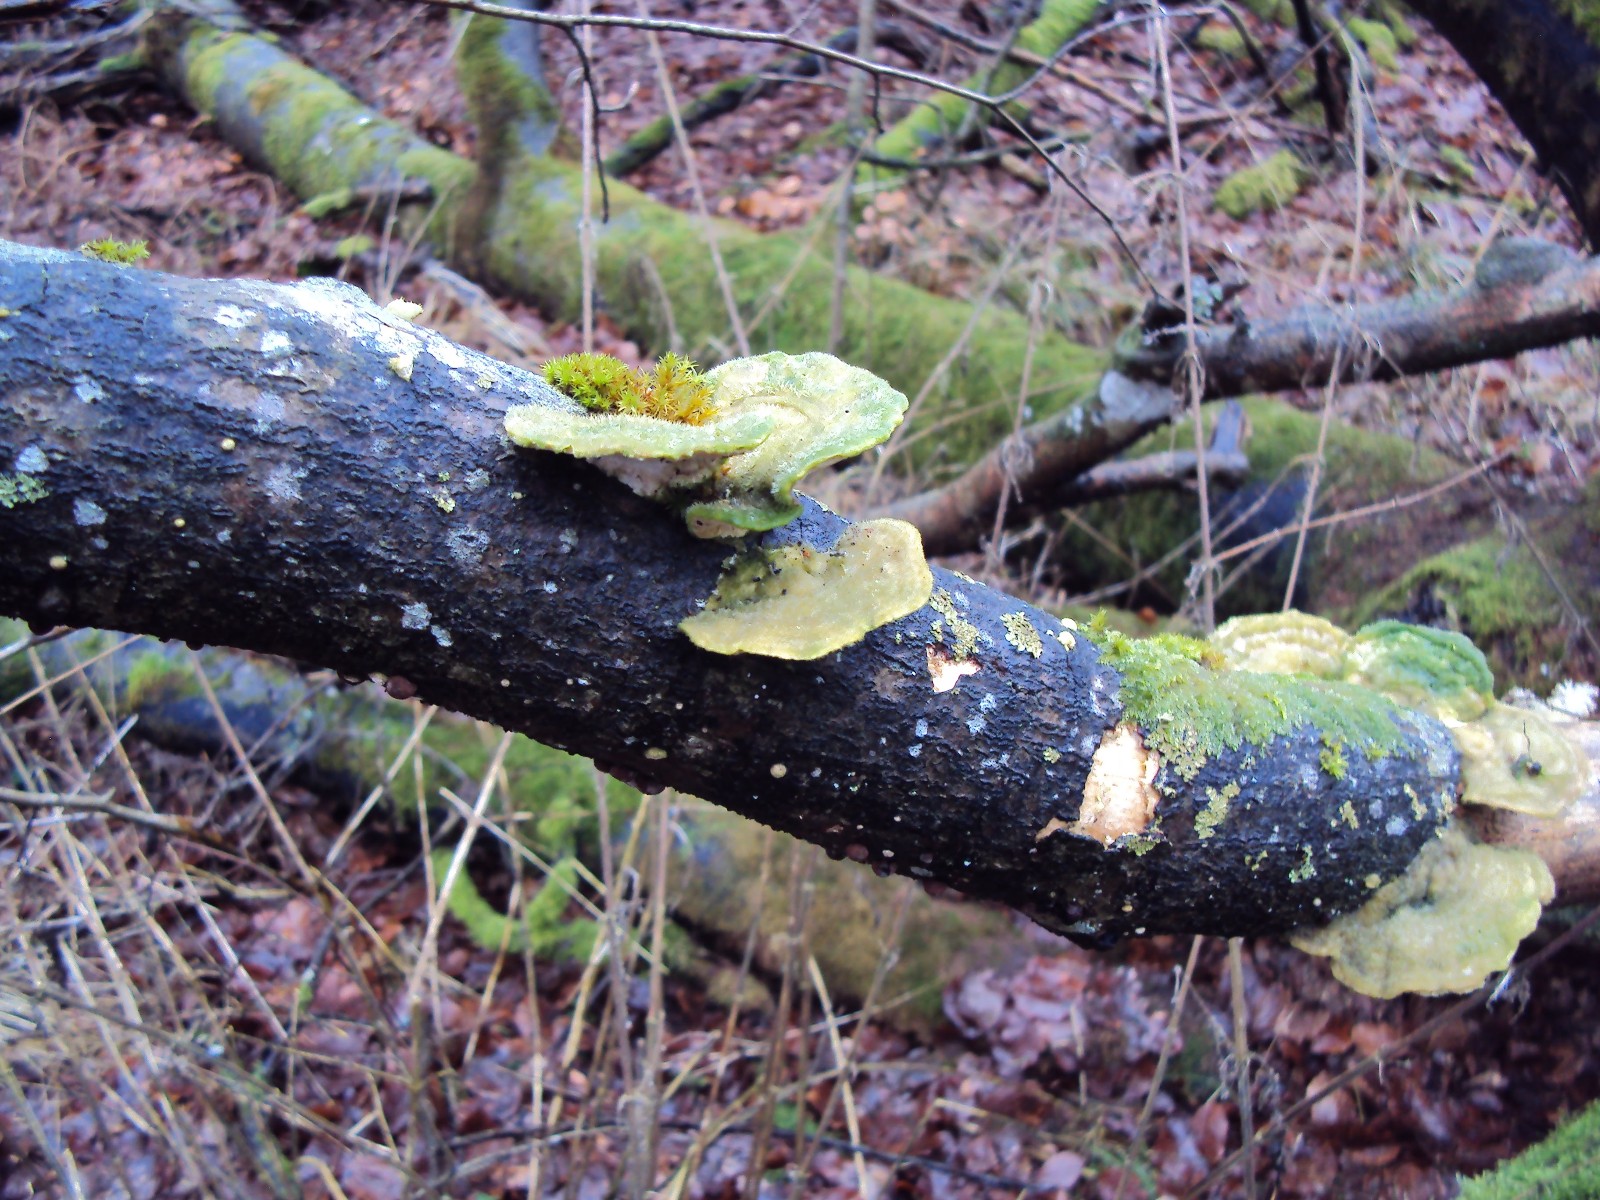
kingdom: Fungi
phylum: Basidiomycota
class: Agaricomycetes
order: Polyporales
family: Polyporaceae
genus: Trametes
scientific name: Trametes hirsuta
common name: håret læderporesvamp
